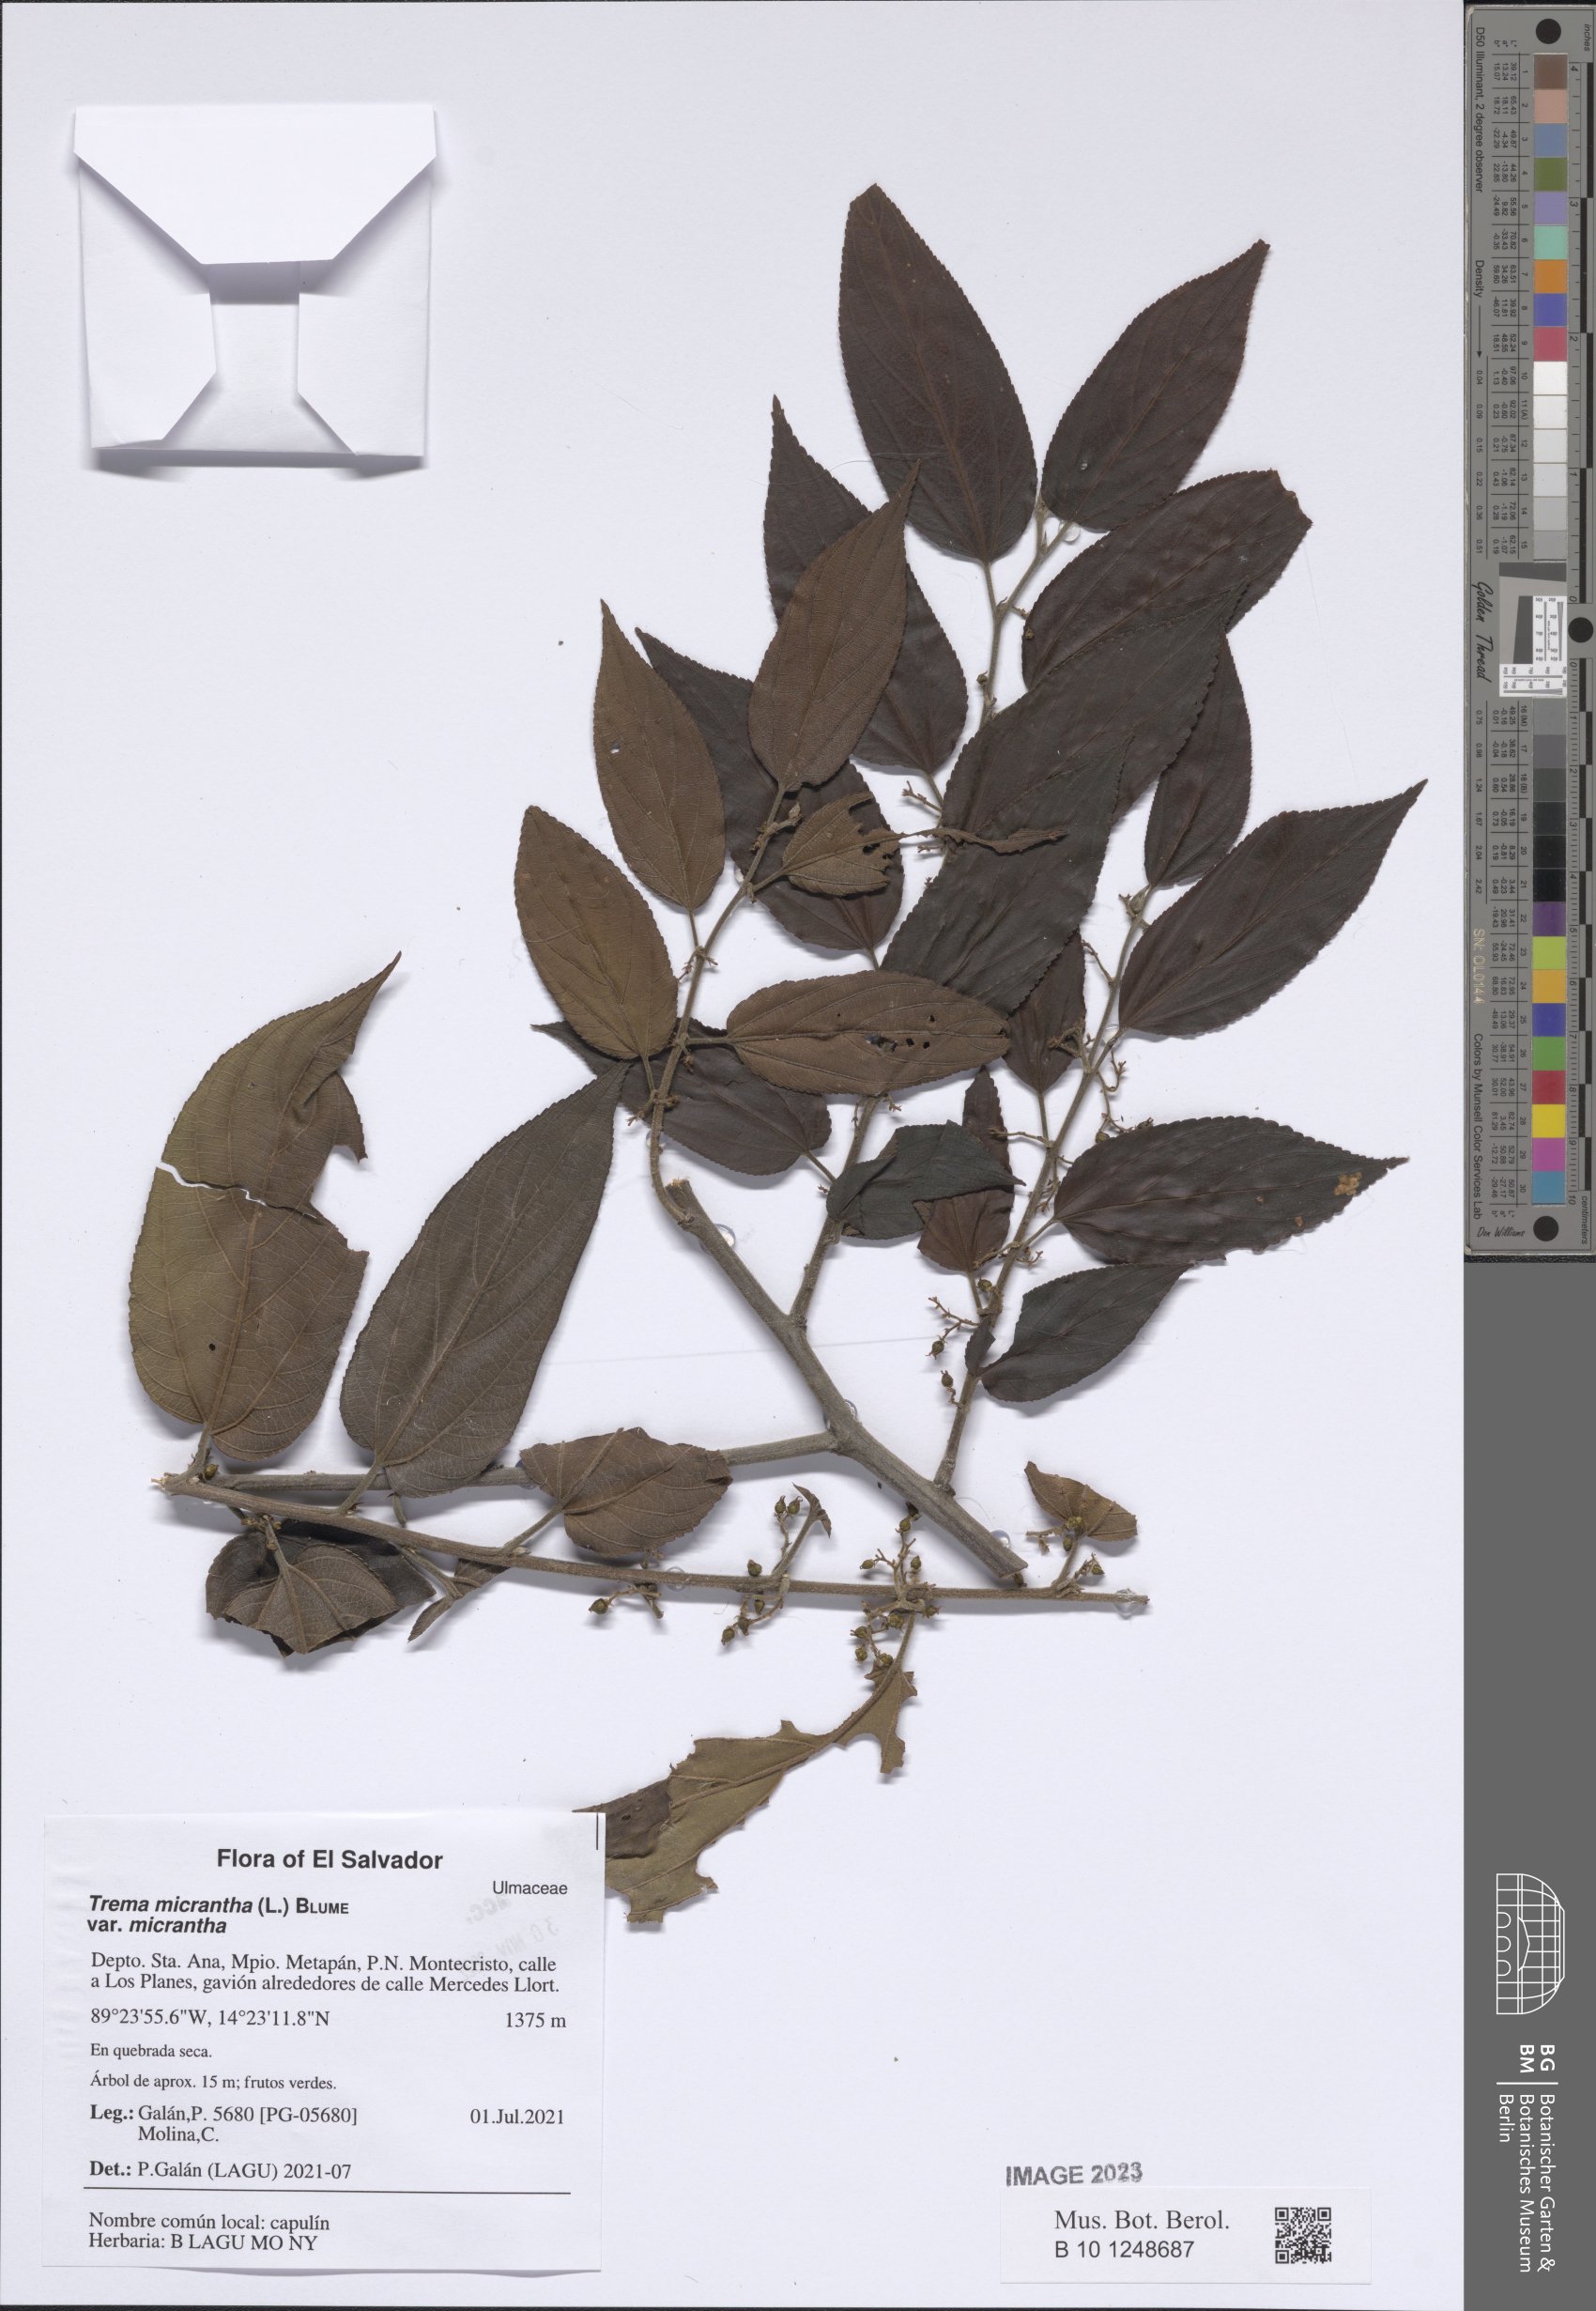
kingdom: Plantae
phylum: Tracheophyta
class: Magnoliopsida
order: Rosales
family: Cannabaceae
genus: Trema
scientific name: Trema micranthum
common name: Jamaican nettletree
